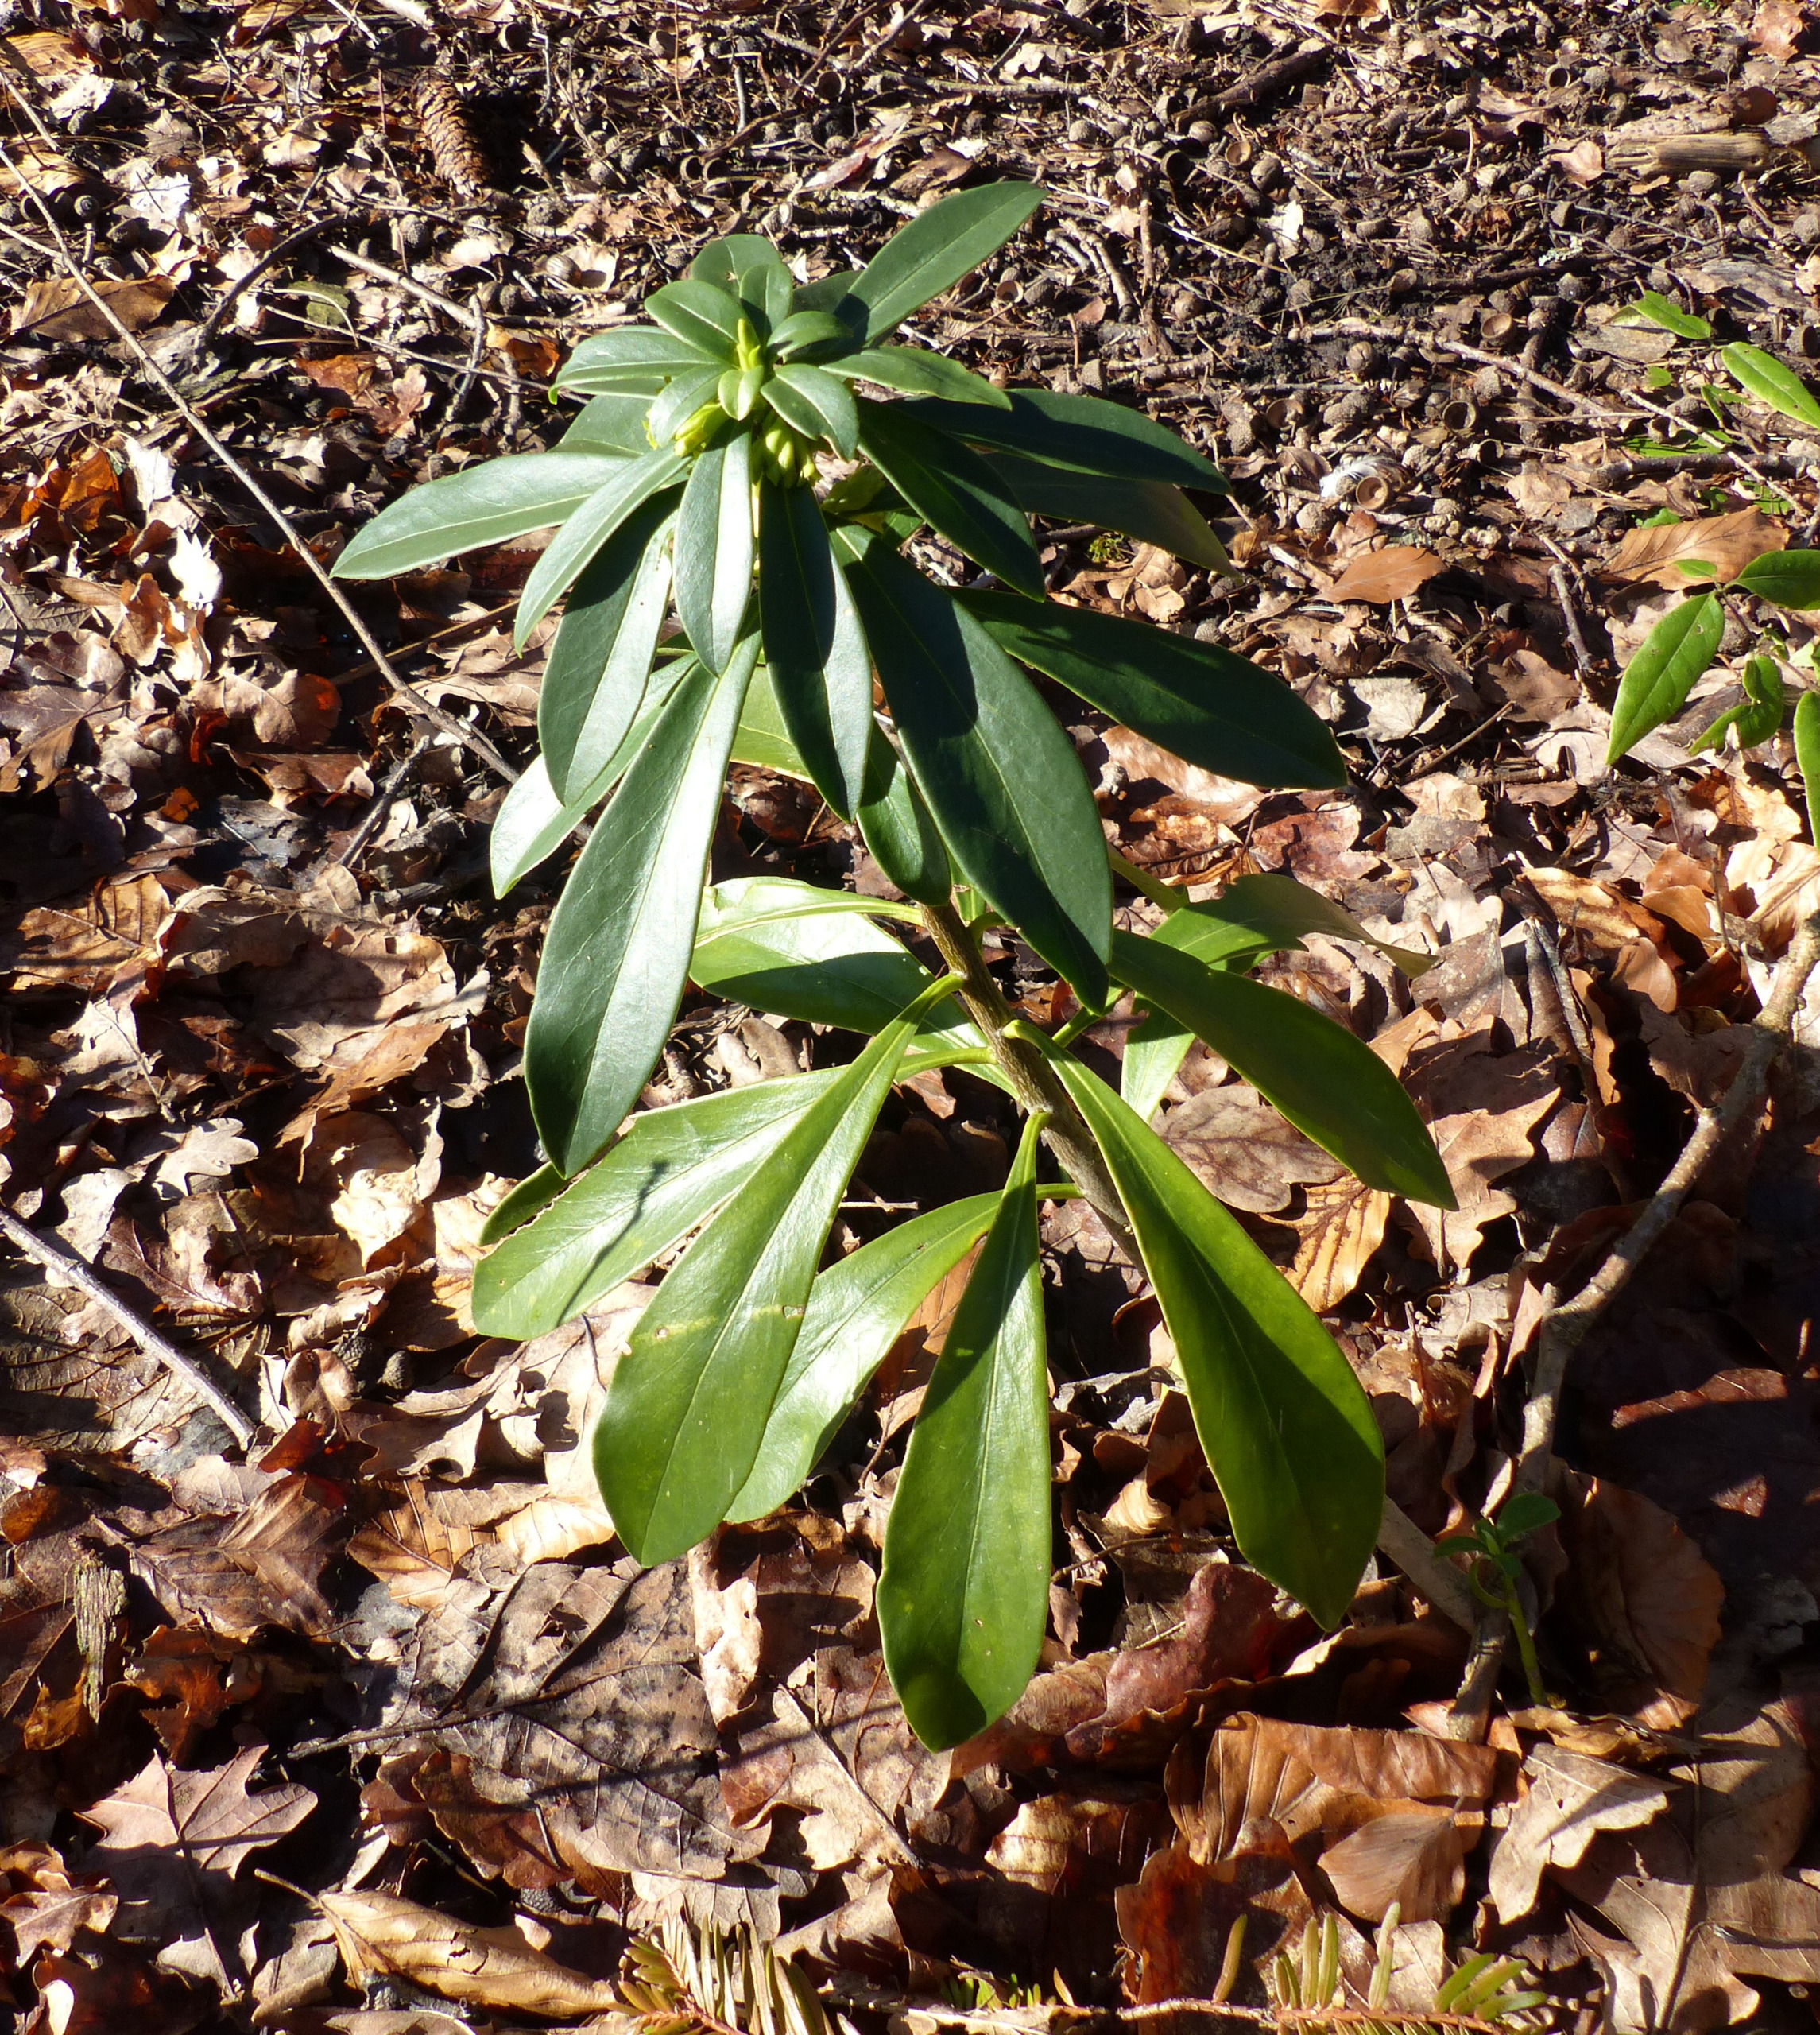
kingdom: Plantae
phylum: Tracheophyta
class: Magnoliopsida
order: Malvales
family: Thymelaeaceae
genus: Daphne
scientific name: Daphne laureola
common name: Laurbær-dafne
